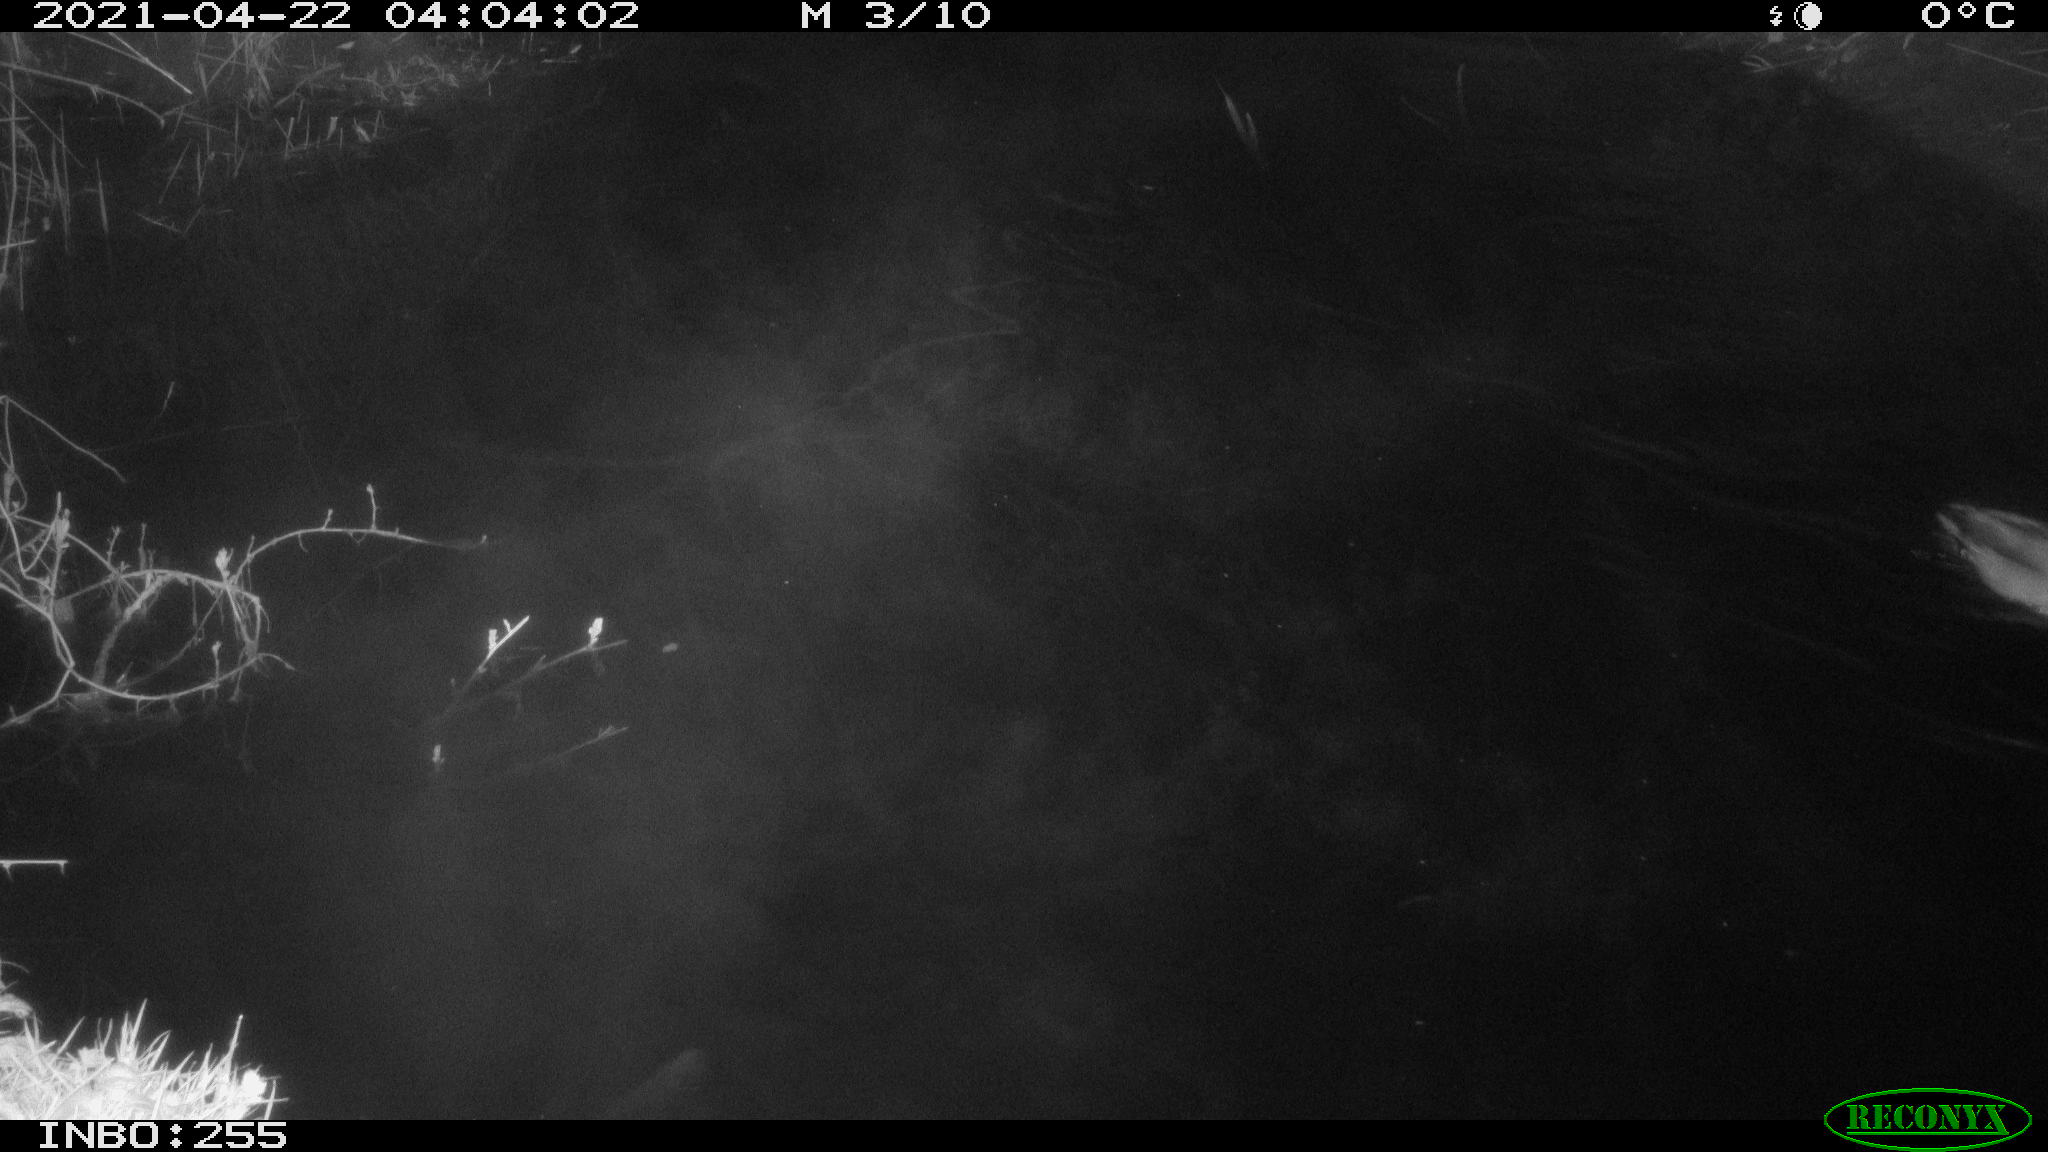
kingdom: Animalia
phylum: Chordata
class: Aves
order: Anseriformes
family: Anatidae
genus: Anas
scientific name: Anas platyrhynchos
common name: Mallard
